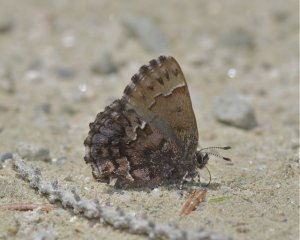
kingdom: Animalia
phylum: Arthropoda
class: Insecta
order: Lepidoptera
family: Lycaenidae
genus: Incisalia
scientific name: Incisalia lanoraieensis
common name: Bog Elfin
